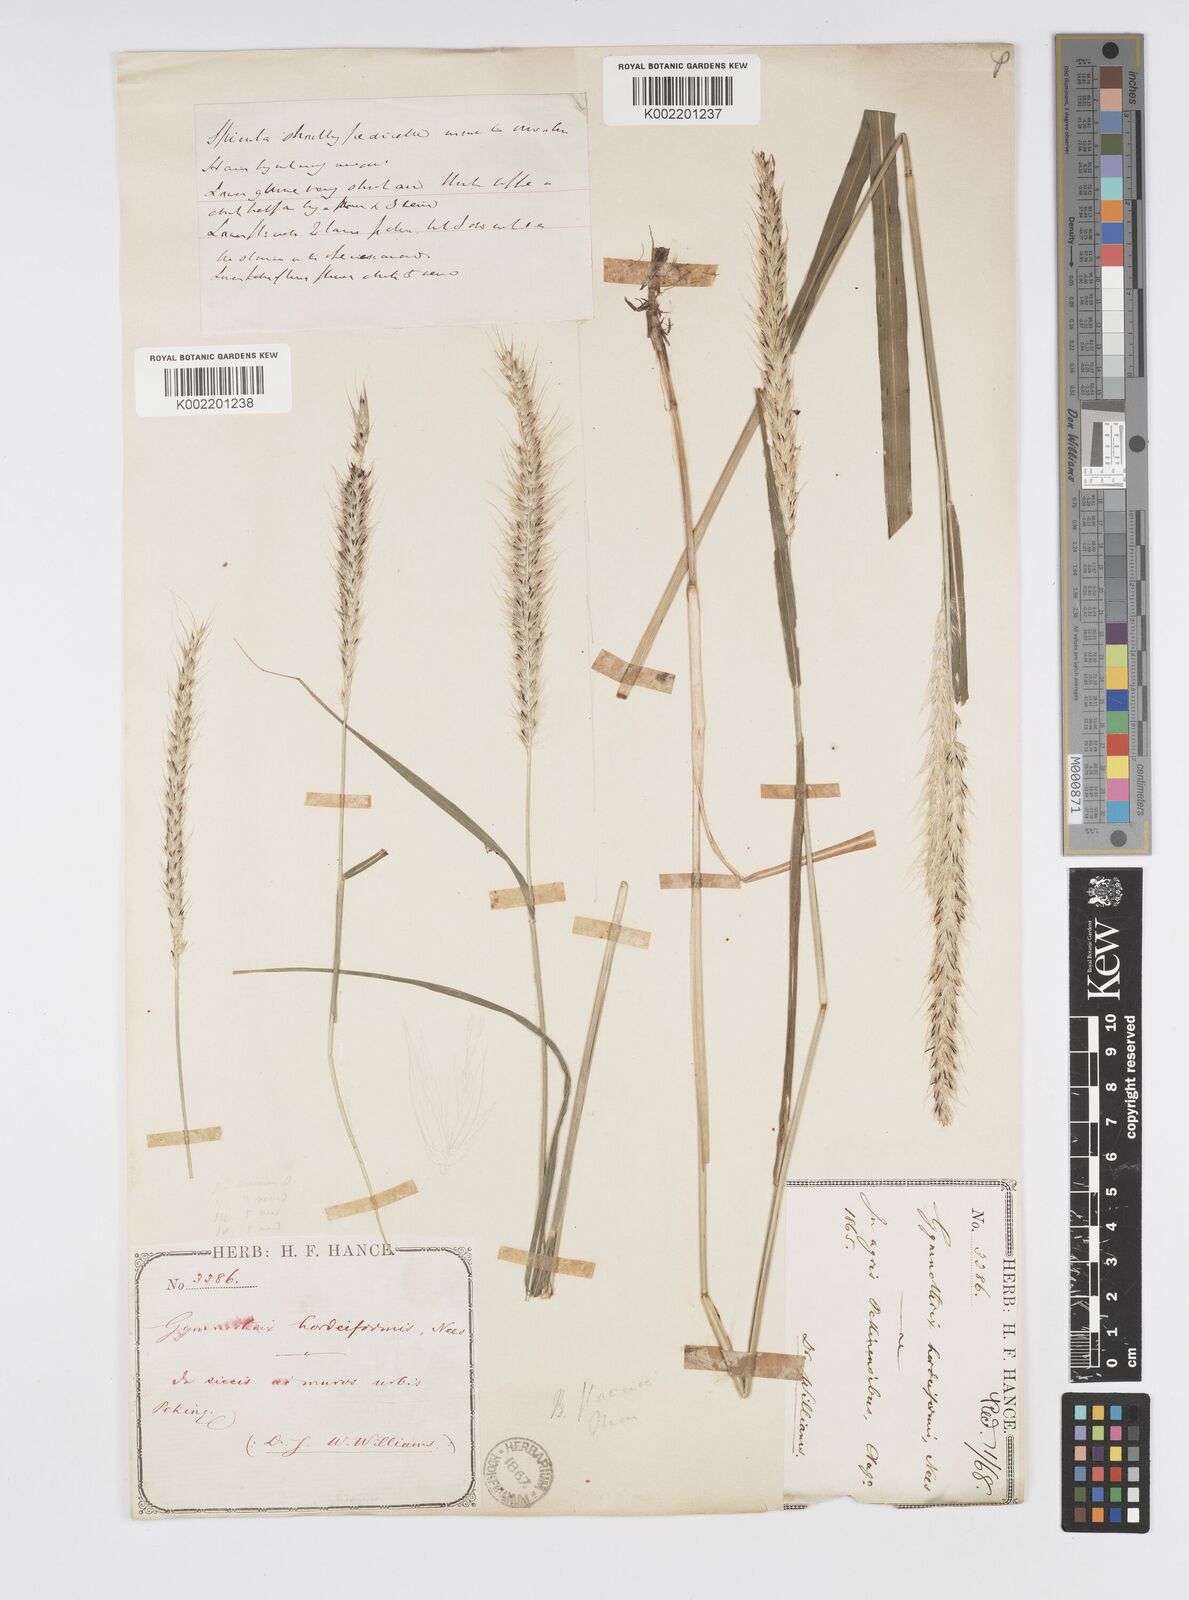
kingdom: Plantae
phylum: Tracheophyta
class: Liliopsida
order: Poales
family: Poaceae
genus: Cenchrus
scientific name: Cenchrus flaccidus
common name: Flaccid grass
